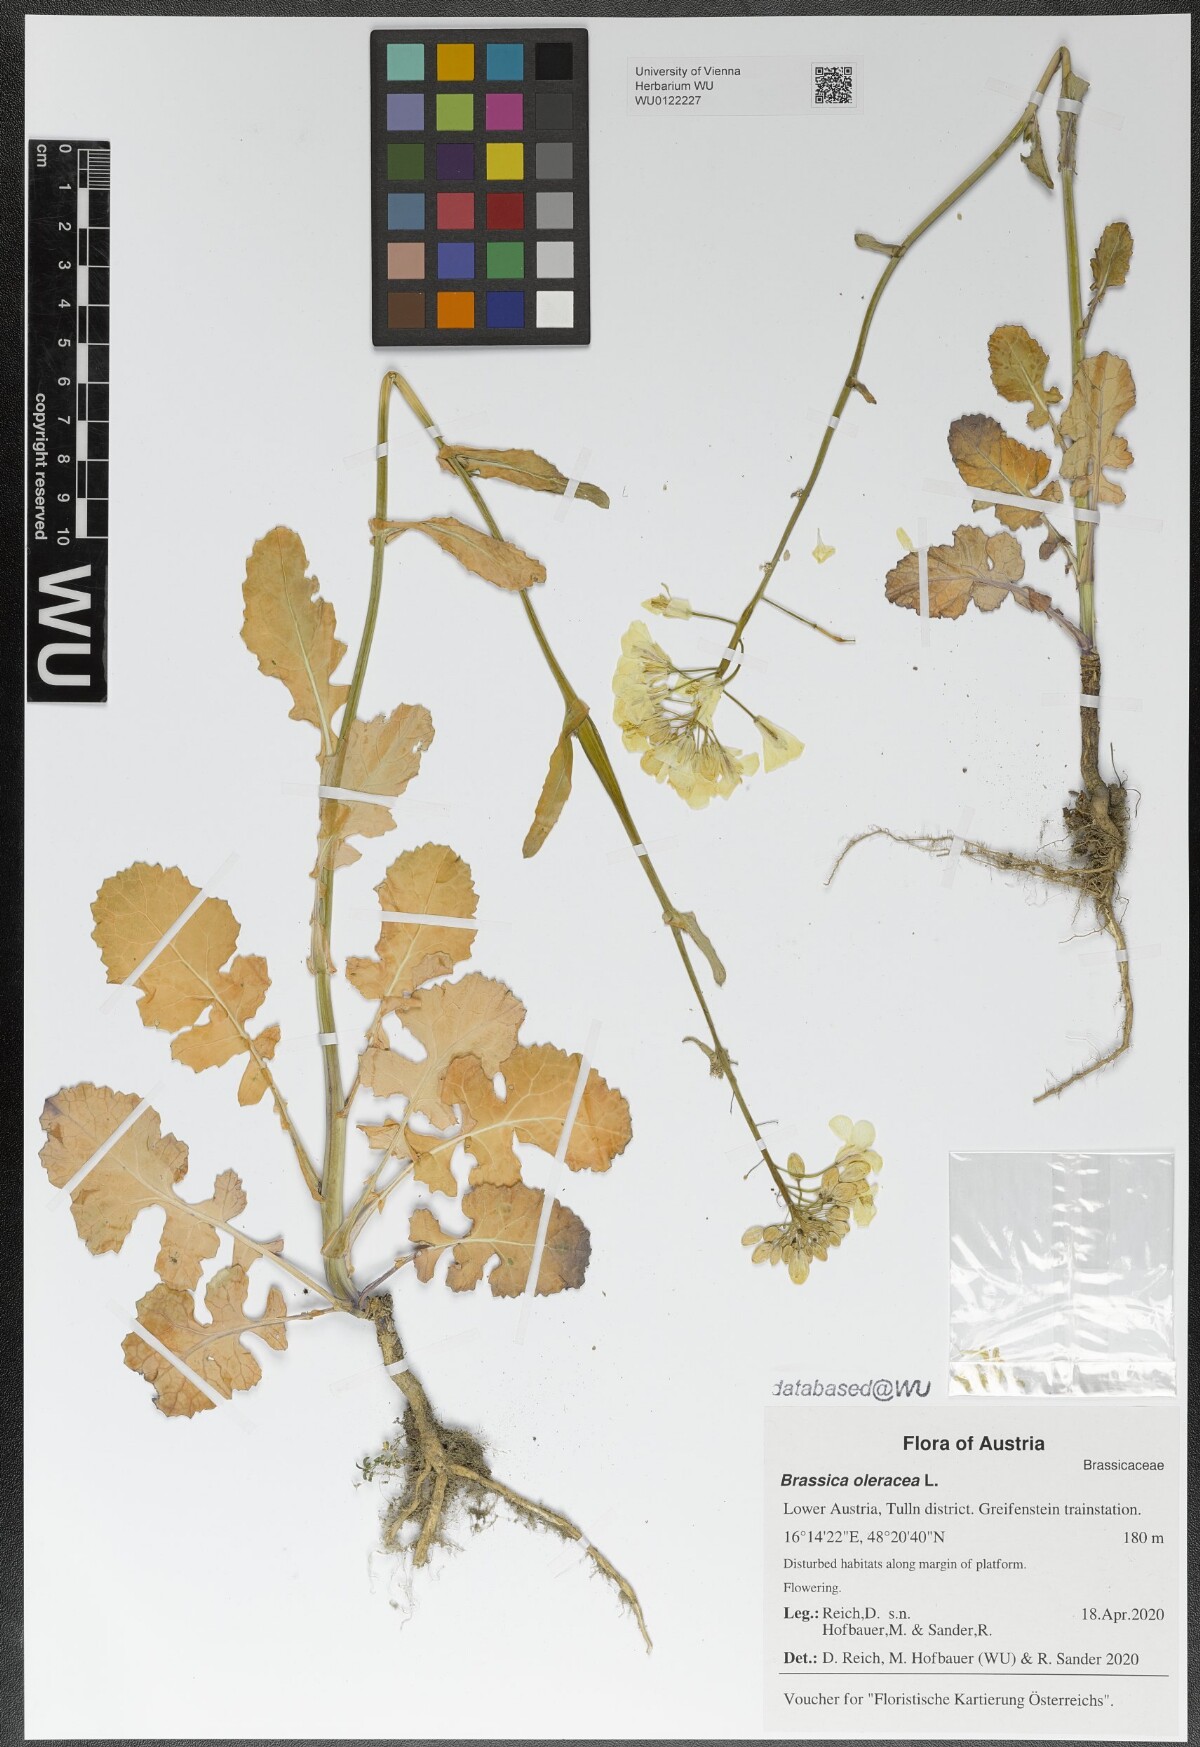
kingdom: Plantae
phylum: Tracheophyta
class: Magnoliopsida
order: Brassicales
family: Brassicaceae
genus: Brassica
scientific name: Brassica oleracea
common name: Cabbage
